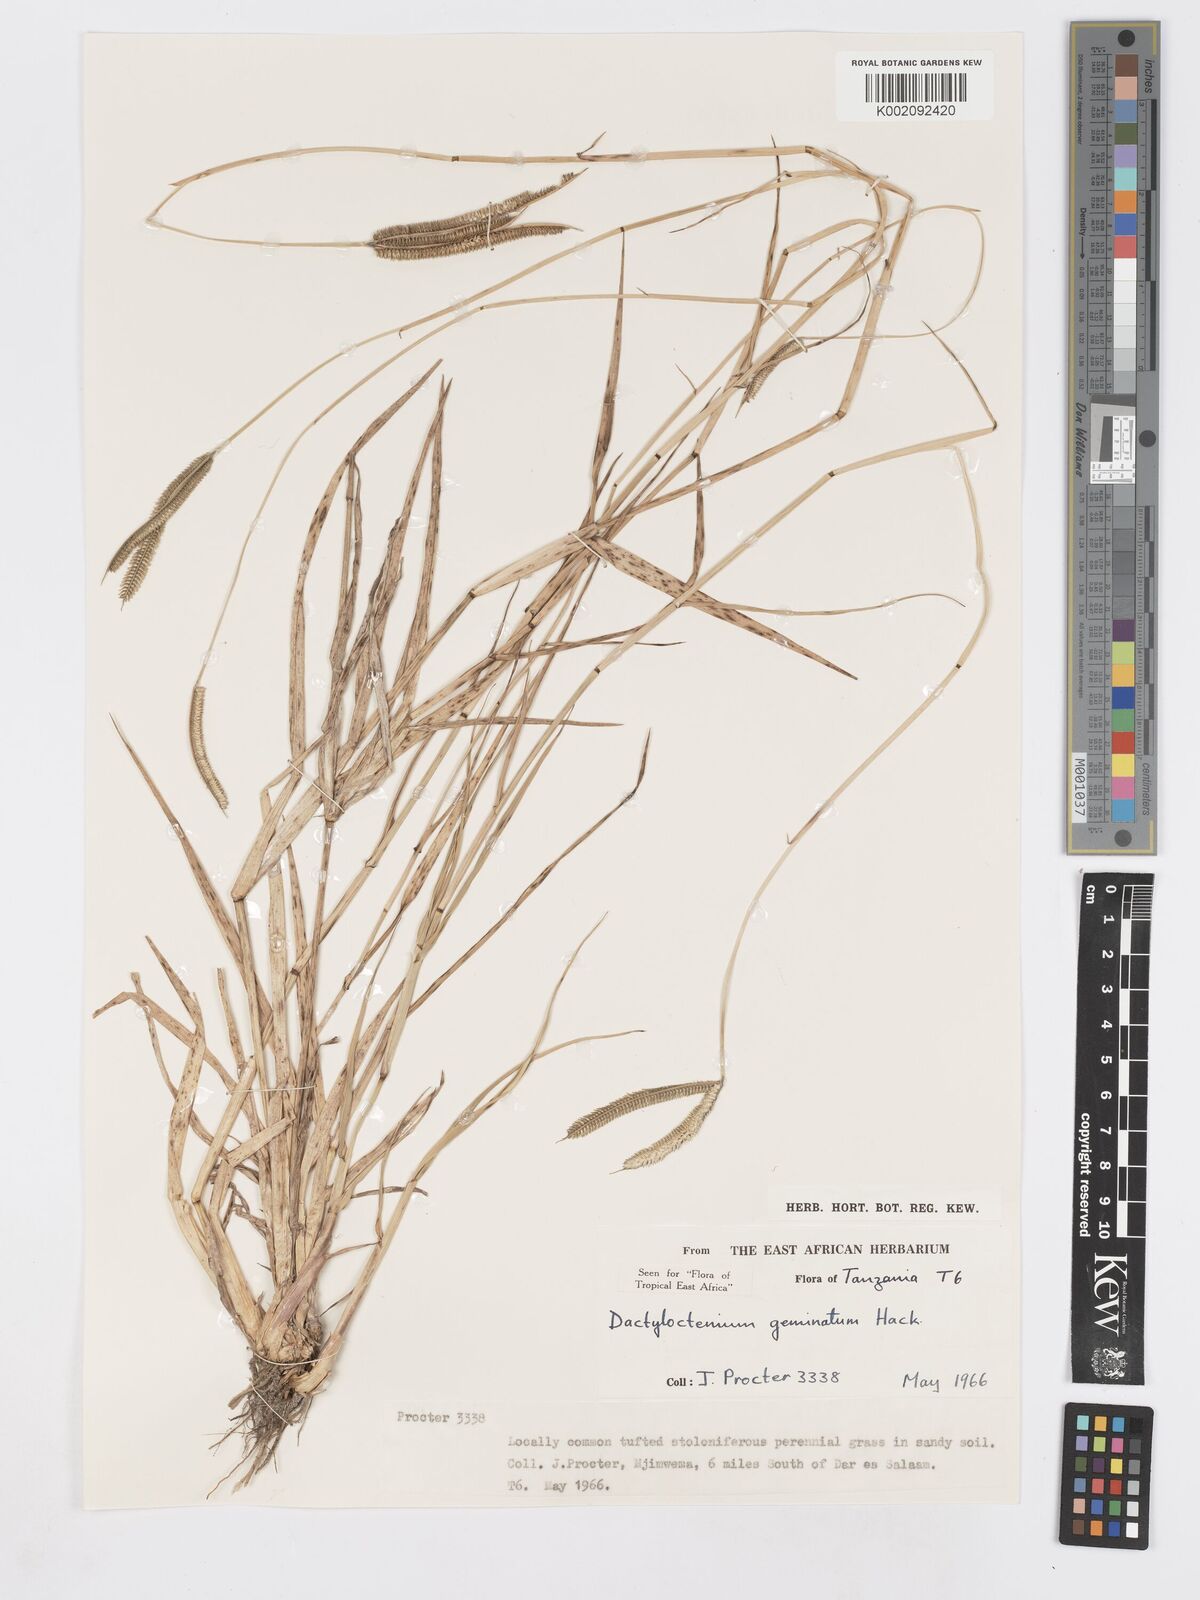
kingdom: Plantae
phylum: Tracheophyta
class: Liliopsida
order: Poales
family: Poaceae
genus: Dactyloctenium
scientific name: Dactyloctenium geminatum
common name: Crowsfoot grass
